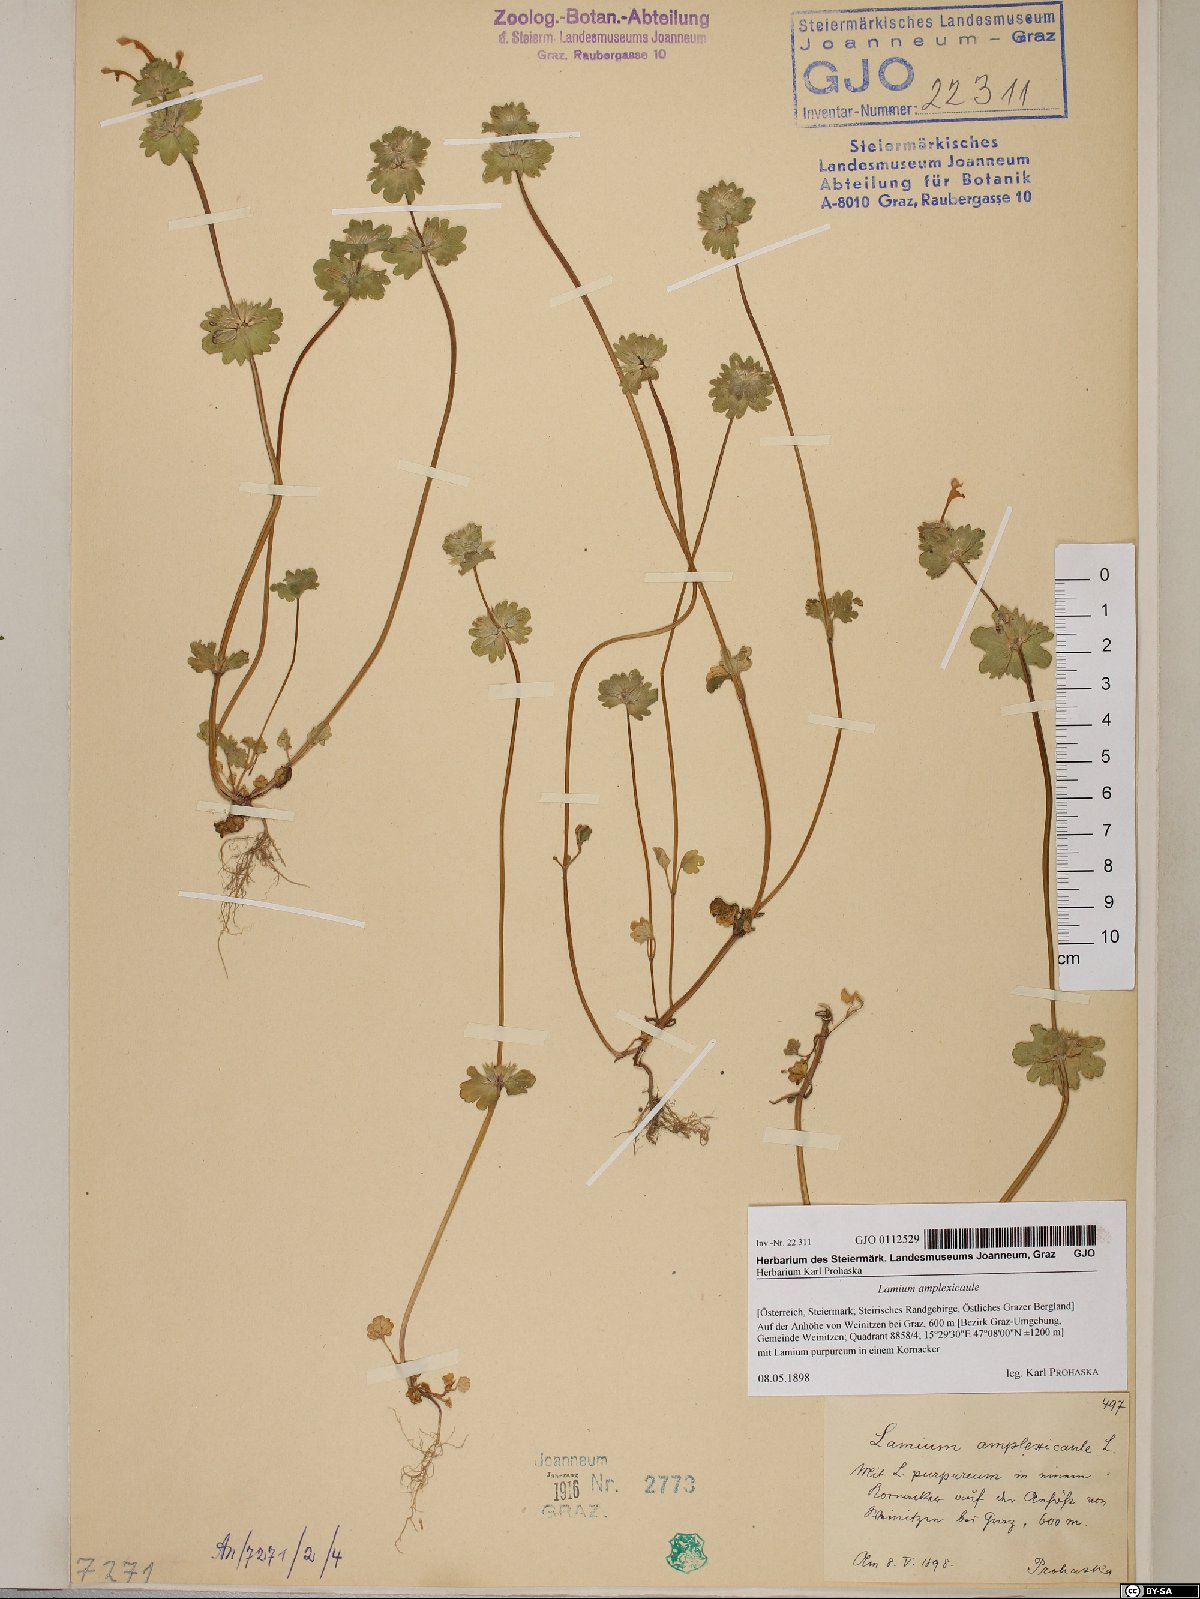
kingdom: Plantae
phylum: Tracheophyta
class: Magnoliopsida
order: Lamiales
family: Lamiaceae
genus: Lamium
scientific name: Lamium amplexicaule
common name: Henbit dead-nettle
